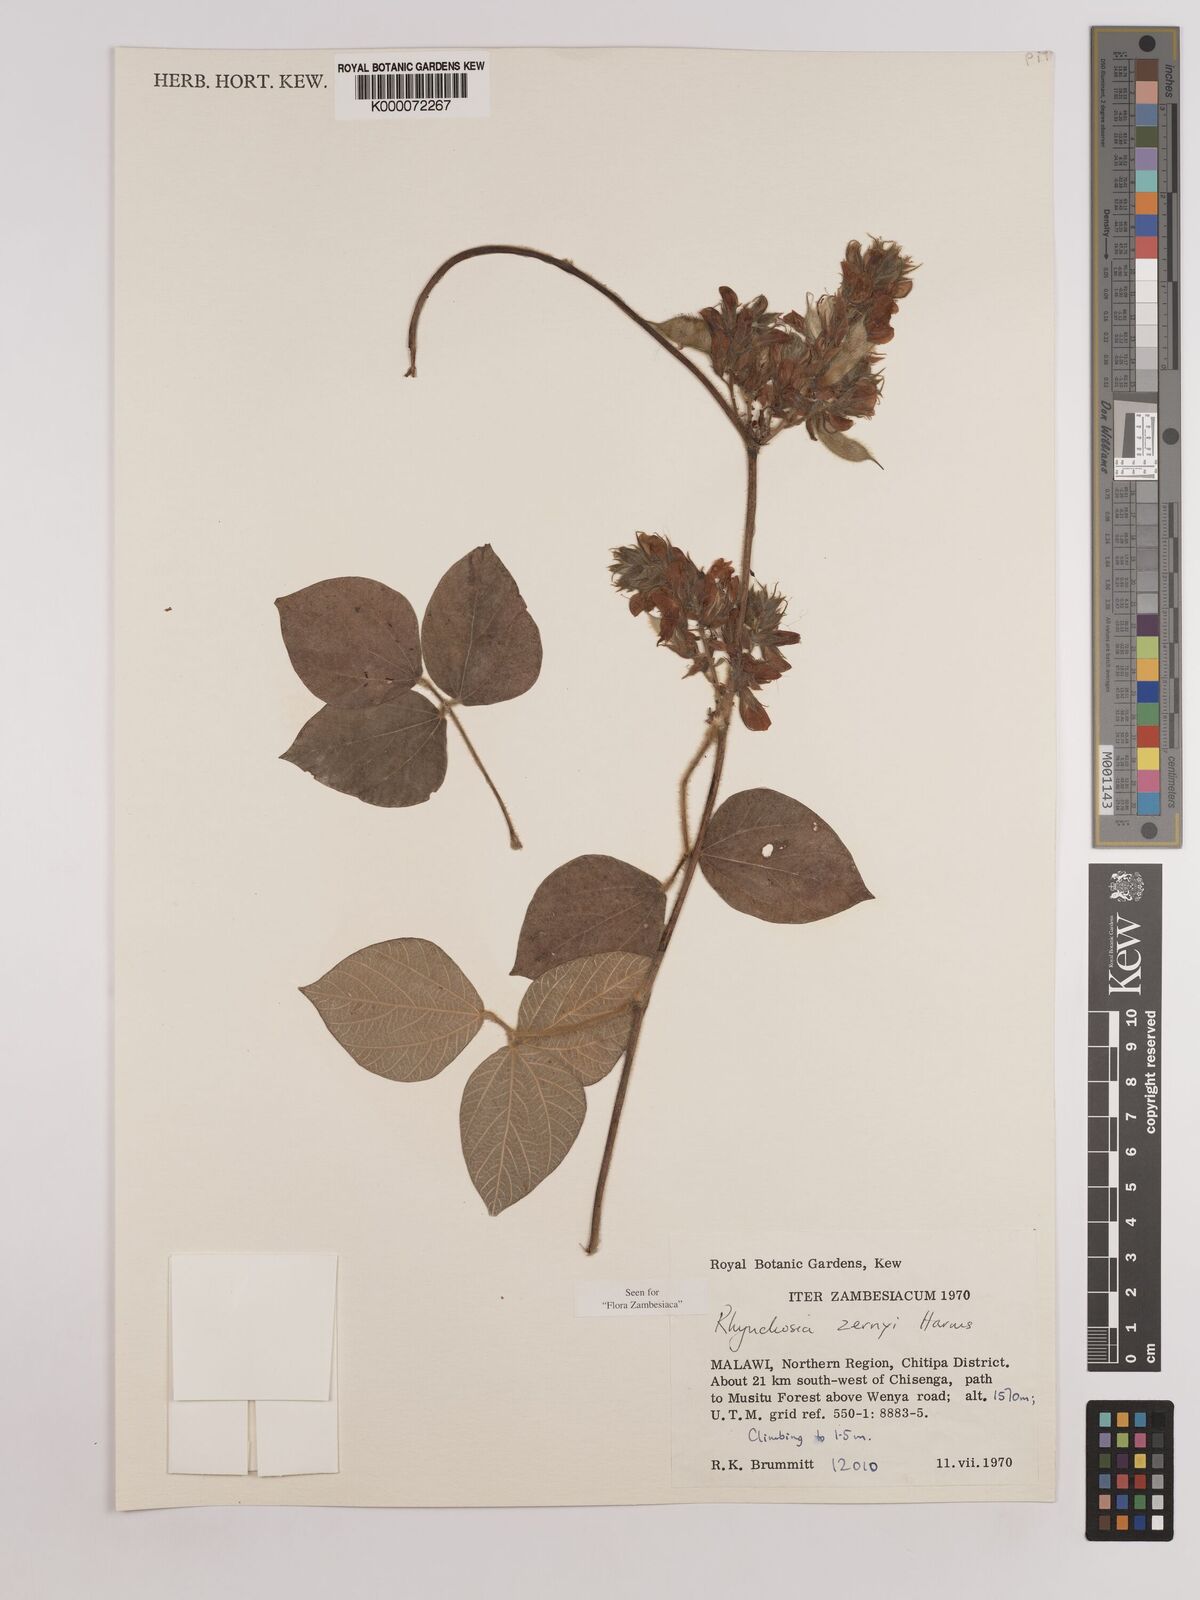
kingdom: Plantae
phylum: Tracheophyta
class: Magnoliopsida
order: Fabales
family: Fabaceae
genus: Rhynchosia
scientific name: Rhynchosia zernyi
